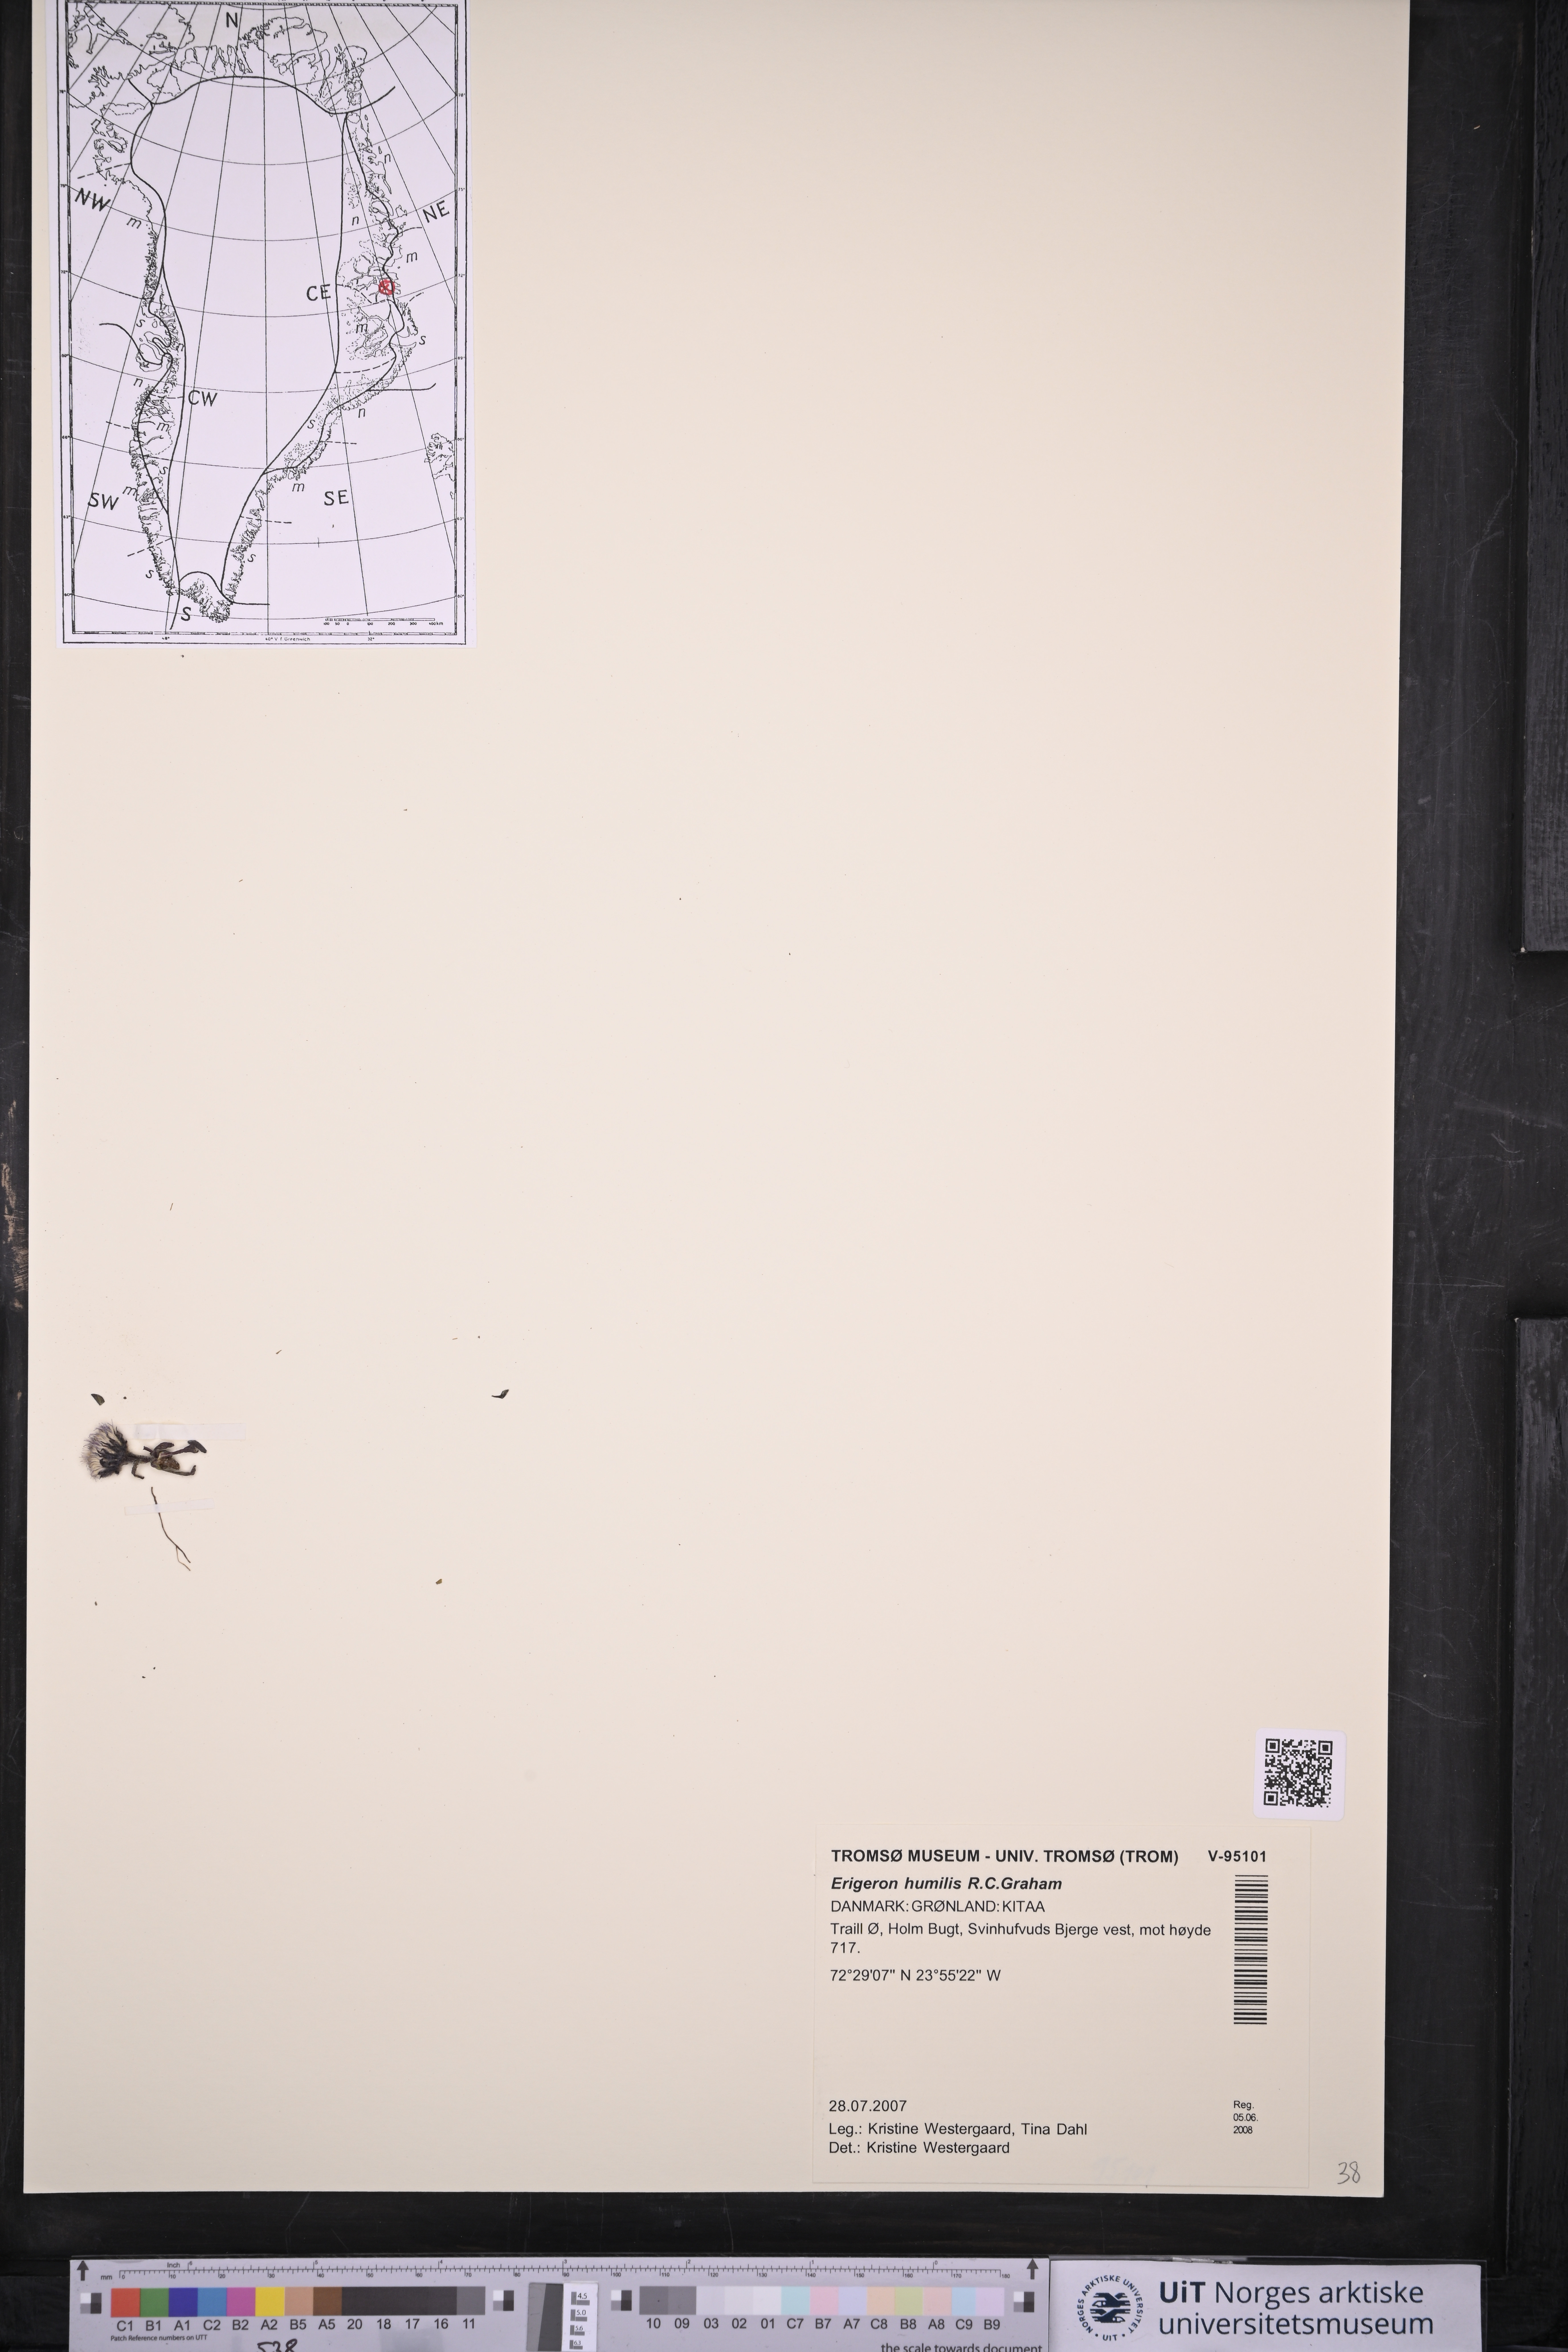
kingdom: Plantae
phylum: Tracheophyta
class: Magnoliopsida
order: Asterales
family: Asteraceae
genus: Erigeron
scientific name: Erigeron humilis
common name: Arctic-alpine fleabane
